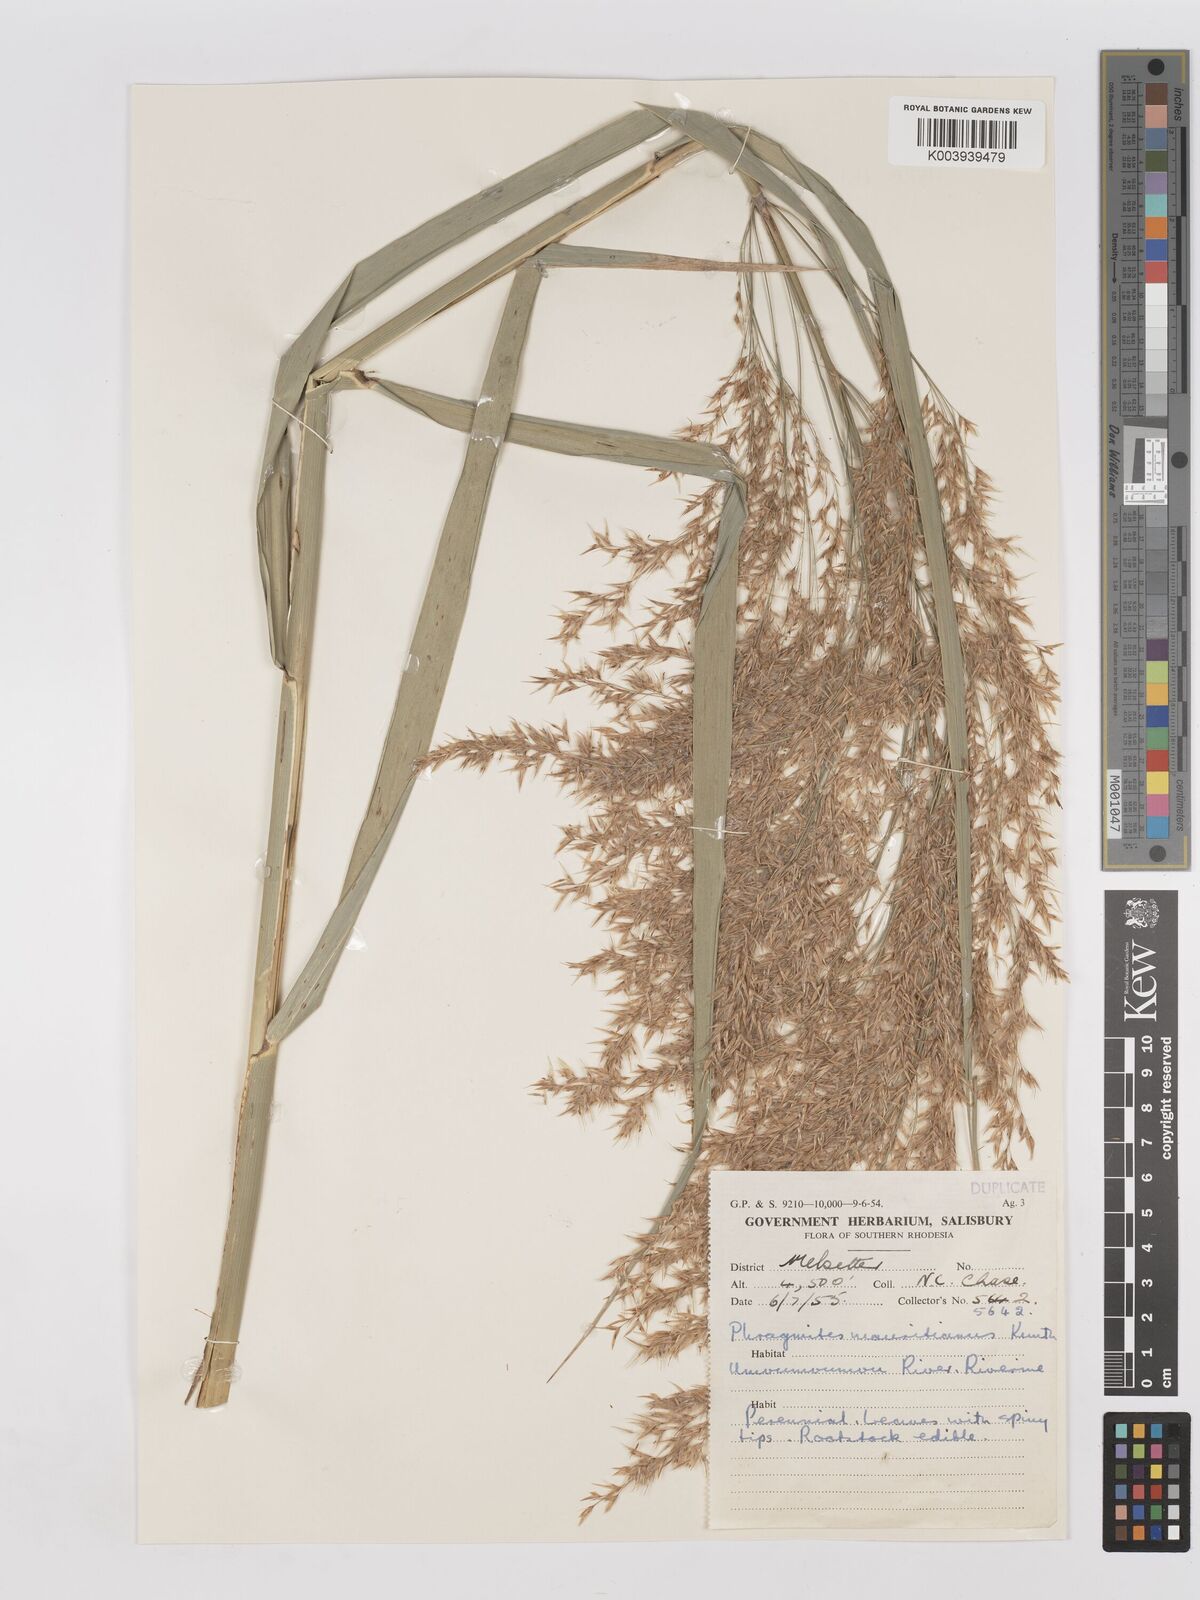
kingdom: Plantae
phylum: Tracheophyta
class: Liliopsida
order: Poales
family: Poaceae
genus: Phragmites
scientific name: Phragmites mauritianus
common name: Reed grass
